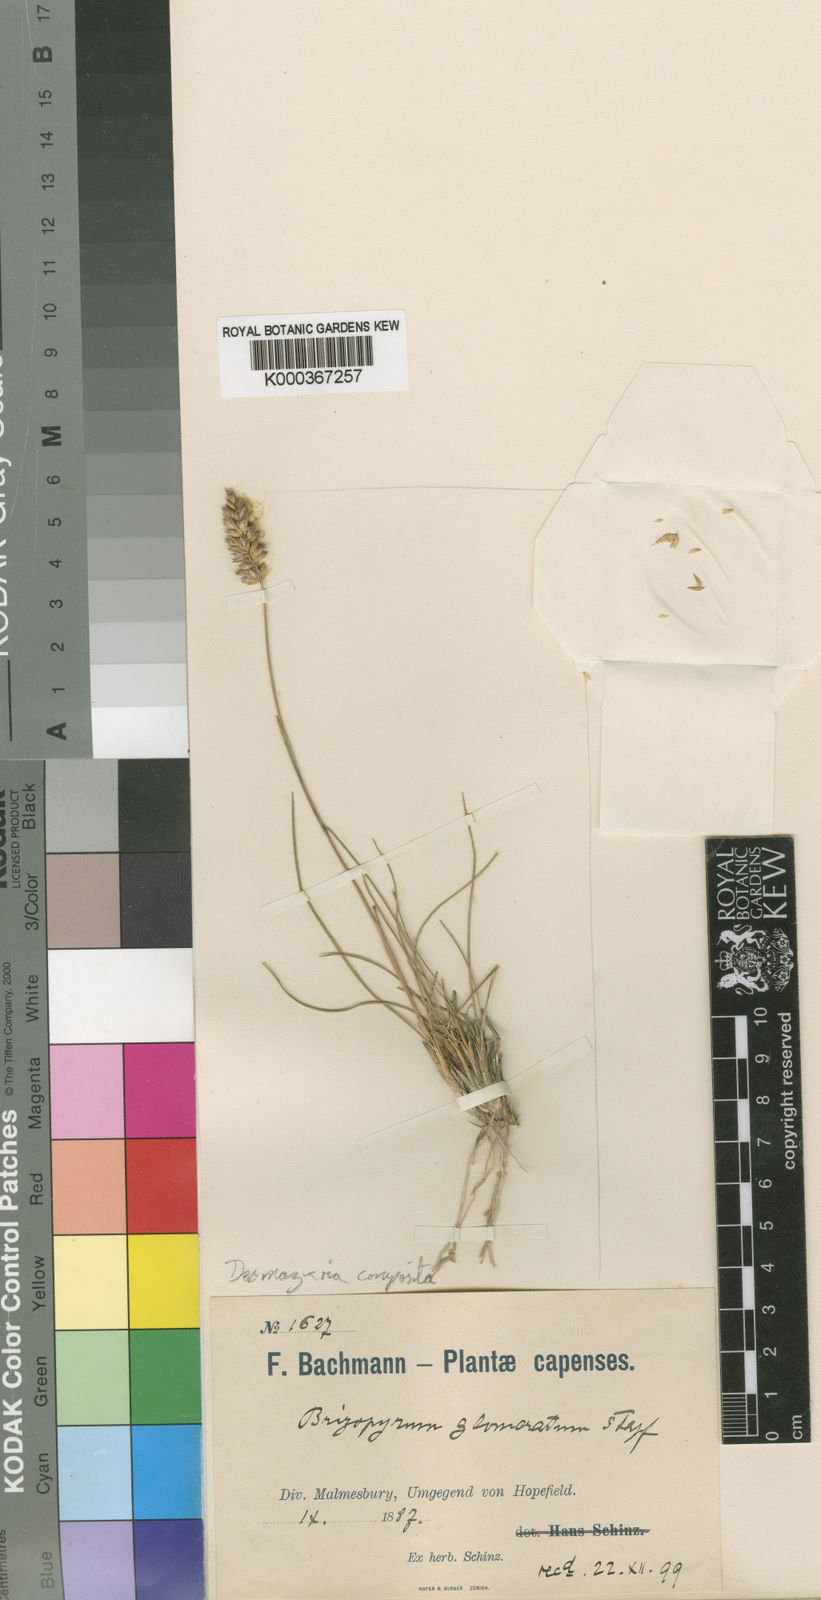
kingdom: Plantae
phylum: Tracheophyta
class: Liliopsida
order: Poales
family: Poaceae
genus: Tribolium
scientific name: Tribolium obtusifolium
